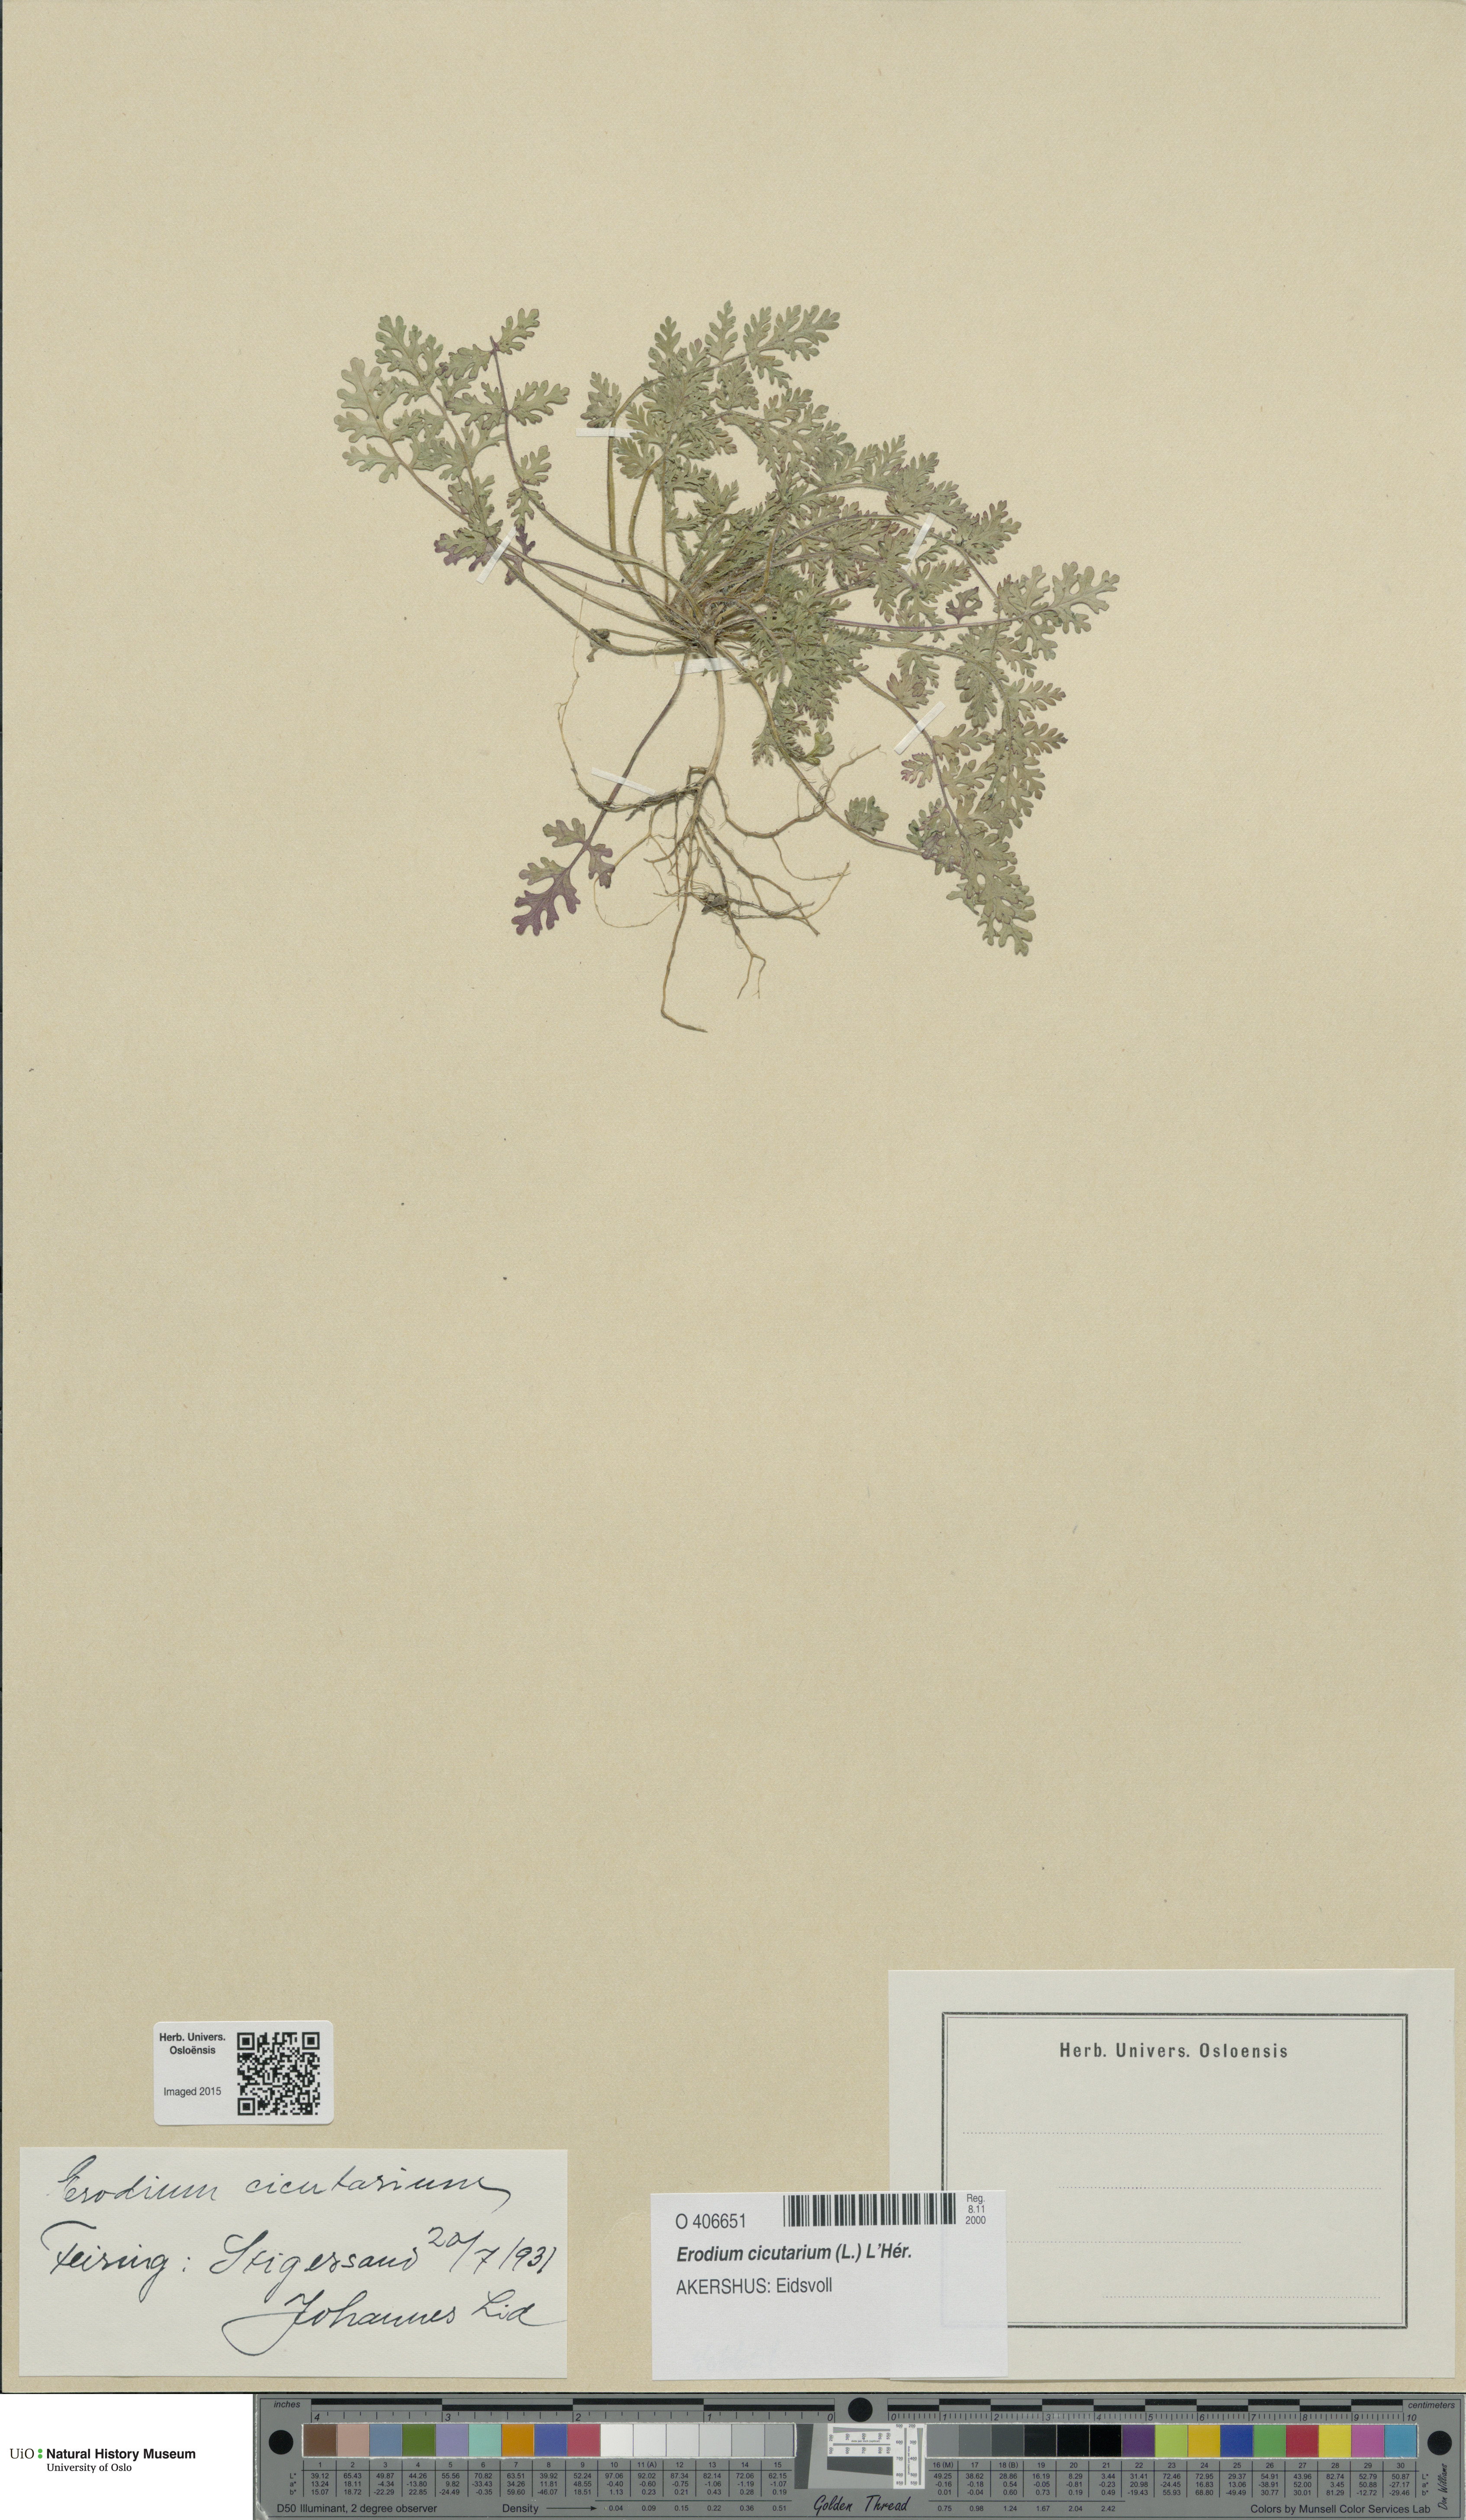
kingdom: Plantae
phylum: Tracheophyta
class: Magnoliopsida
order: Geraniales
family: Geraniaceae
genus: Erodium
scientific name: Erodium cicutarium
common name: Common stork's-bill
